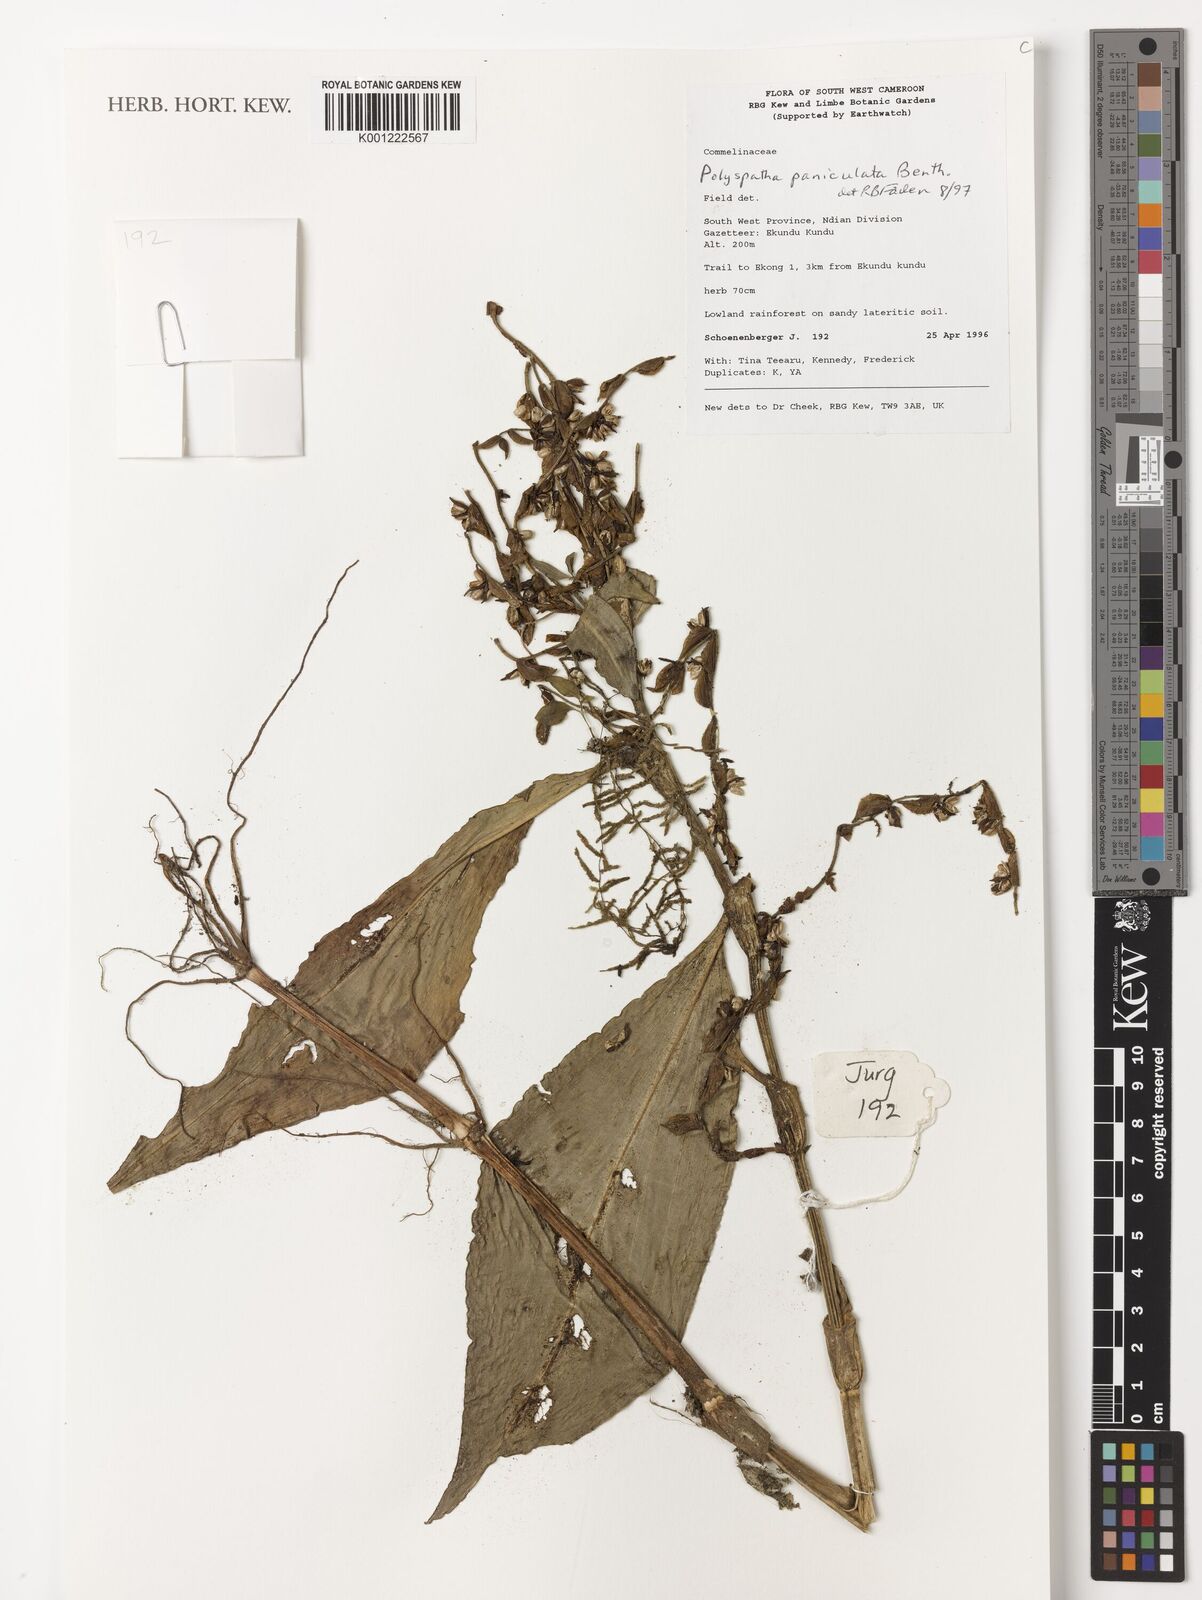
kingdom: Plantae
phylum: Tracheophyta
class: Liliopsida
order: Commelinales
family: Commelinaceae
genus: Polyspatha
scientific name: Polyspatha paniculata
